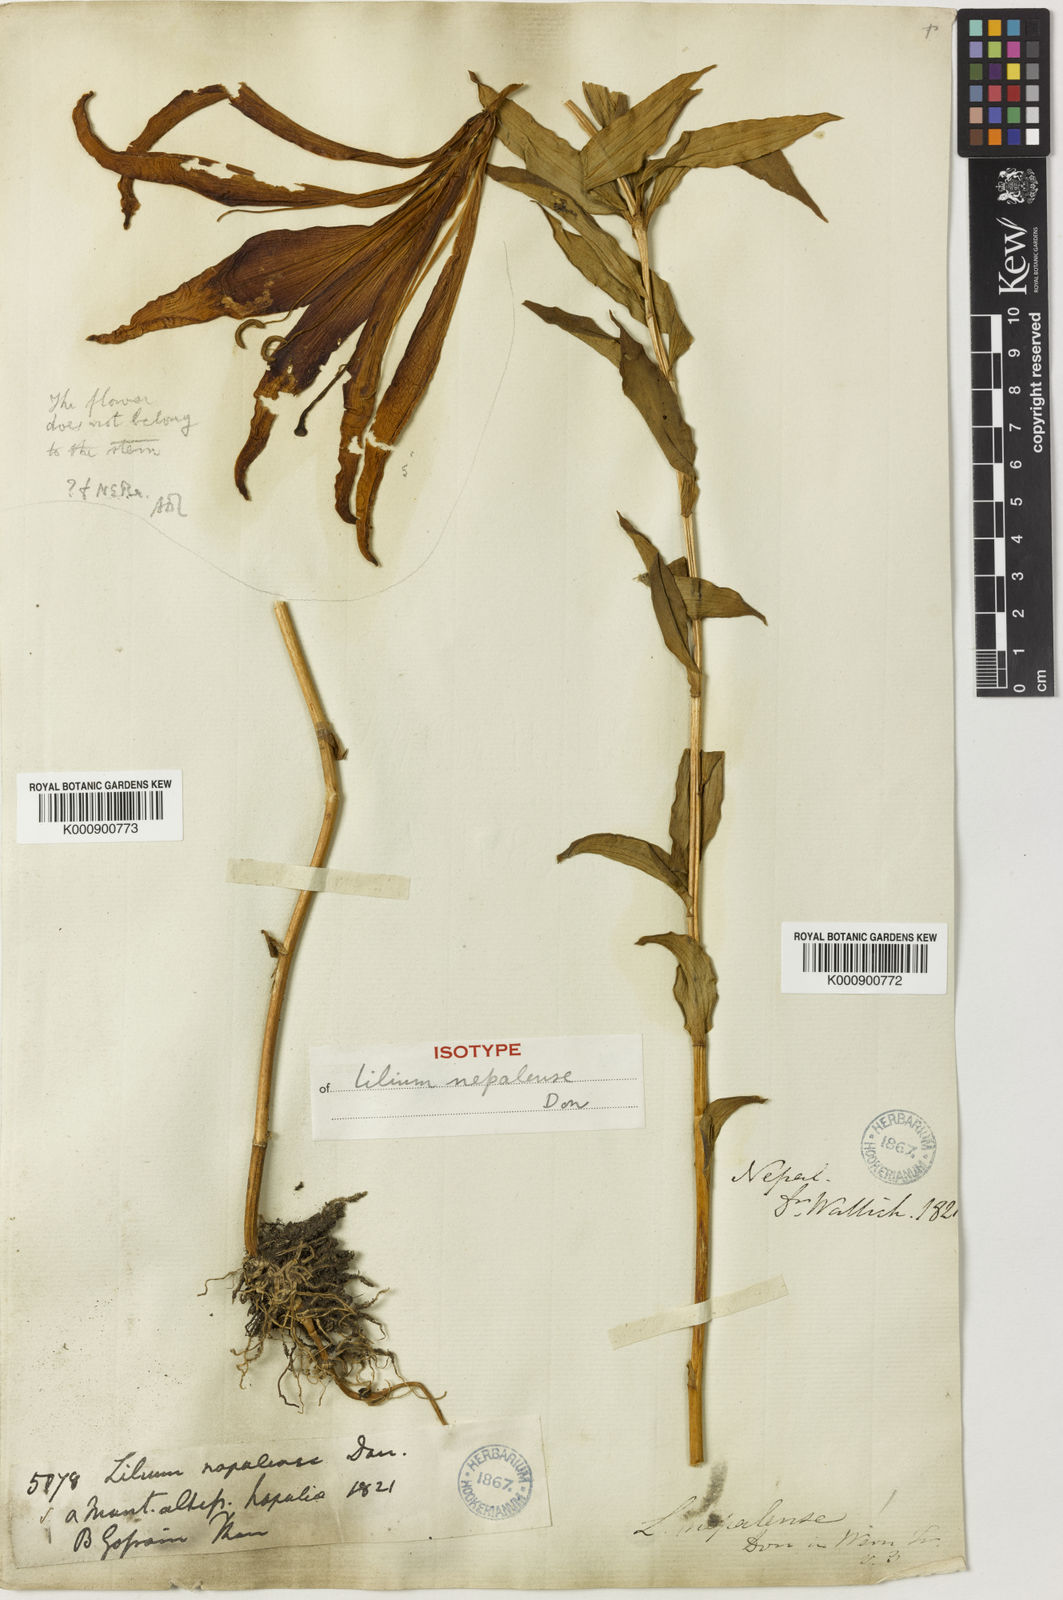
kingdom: Plantae
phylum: Tracheophyta
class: Liliopsida
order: Liliales
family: Liliaceae
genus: Lilium
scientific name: Lilium nepalense
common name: Nepal lily
